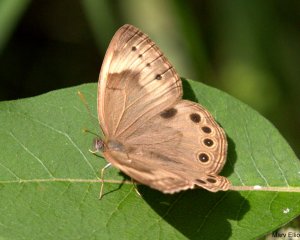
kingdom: Animalia
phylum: Arthropoda
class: Insecta
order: Lepidoptera
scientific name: Lepidoptera
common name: Butterflies
